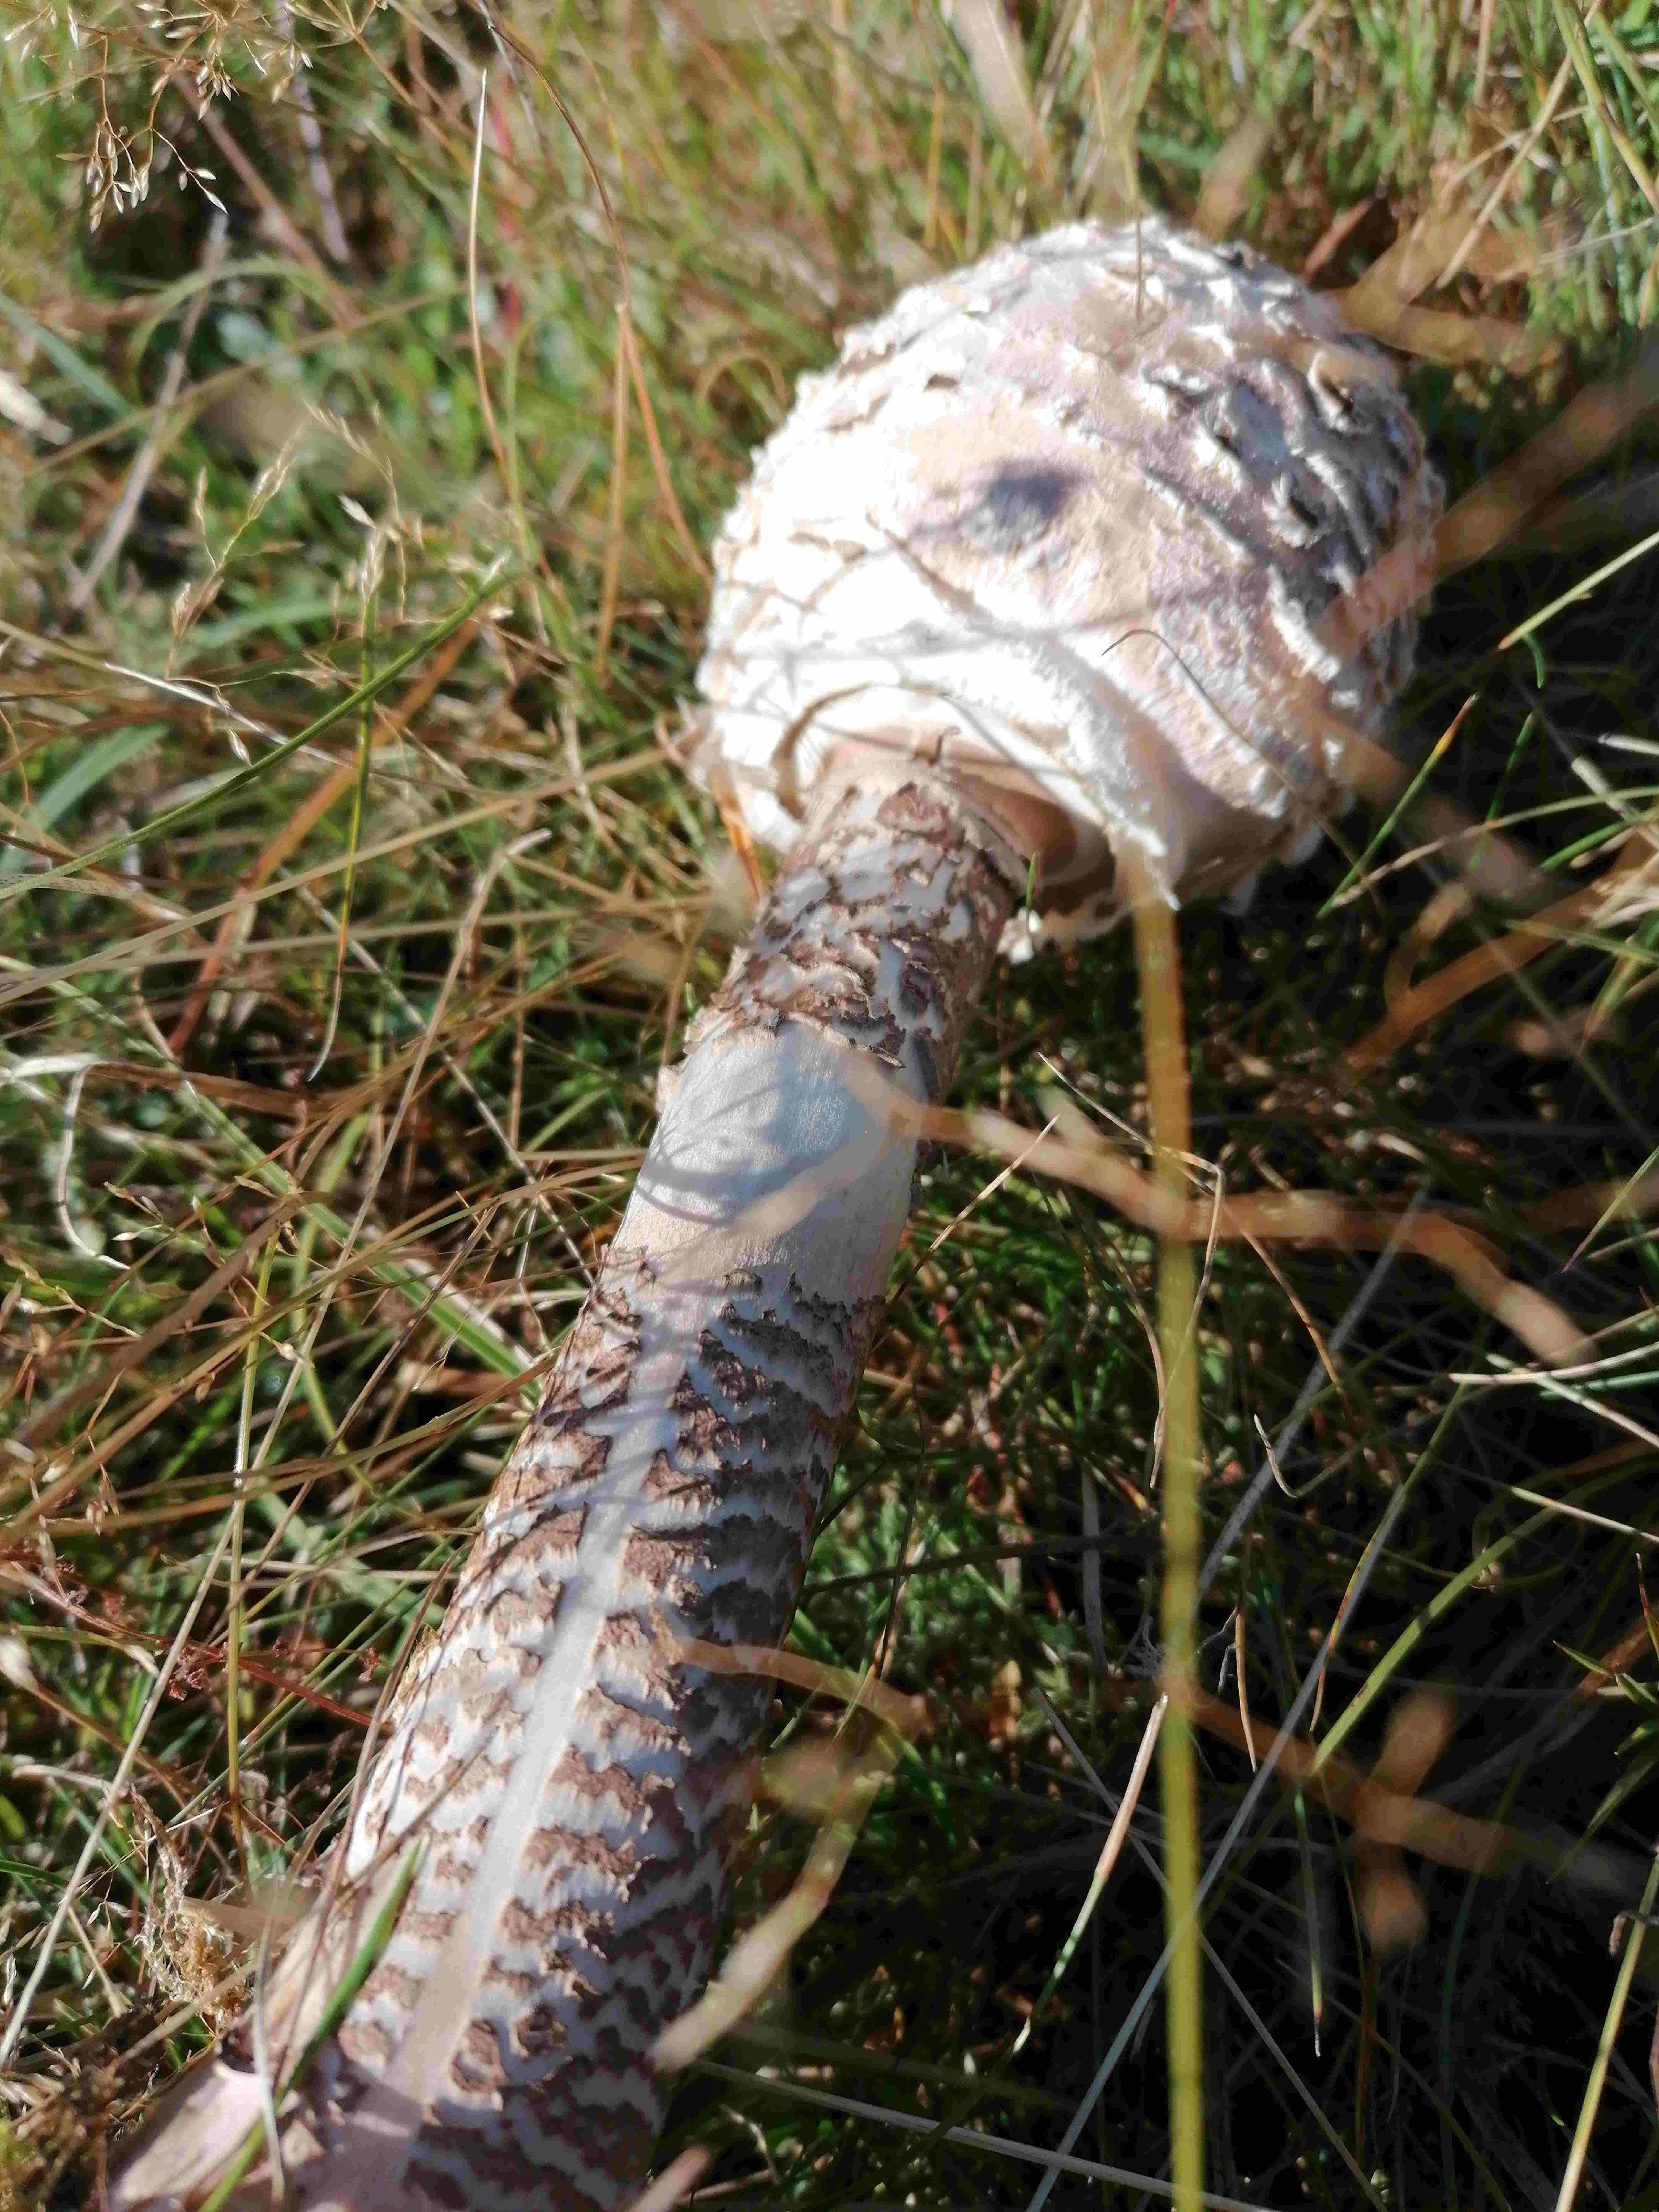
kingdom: Fungi
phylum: Basidiomycota
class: Agaricomycetes
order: Agaricales
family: Agaricaceae
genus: Macrolepiota
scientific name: Macrolepiota procera
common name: stor kæmpeparasolhat
